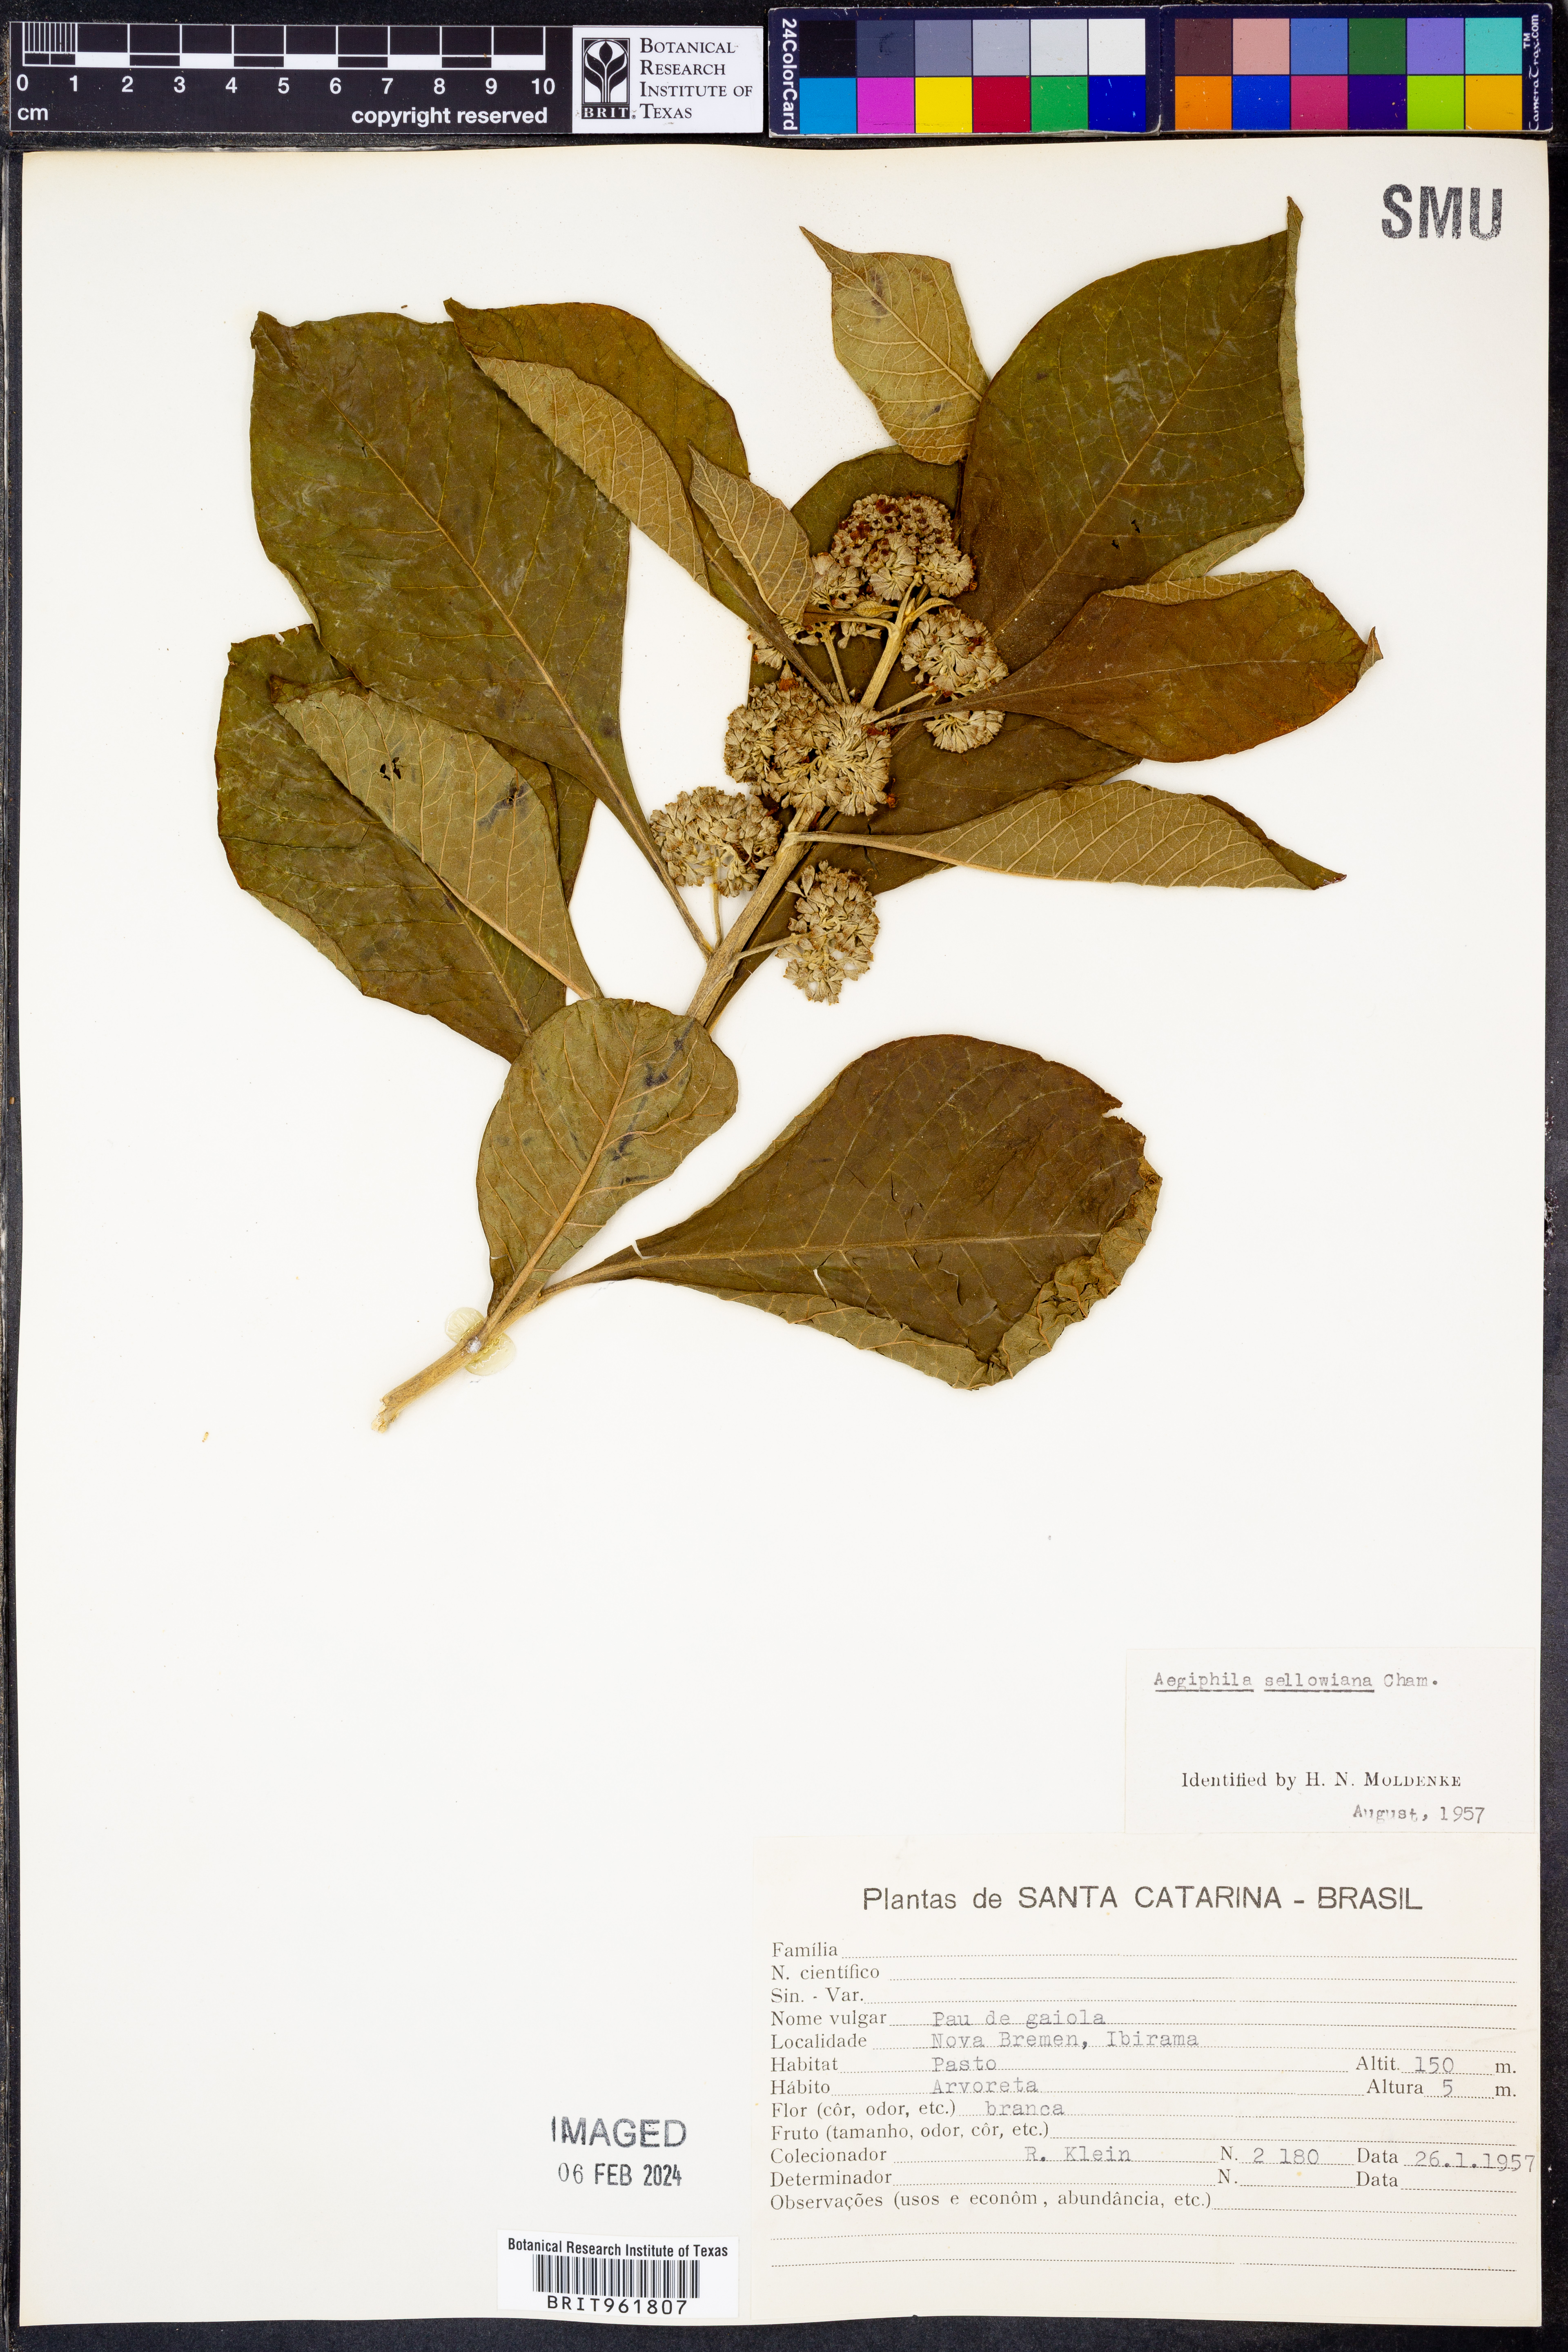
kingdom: Plantae
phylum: Tracheophyta
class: Magnoliopsida
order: Lamiales
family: Lamiaceae
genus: Aegiphila
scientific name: Aegiphila
